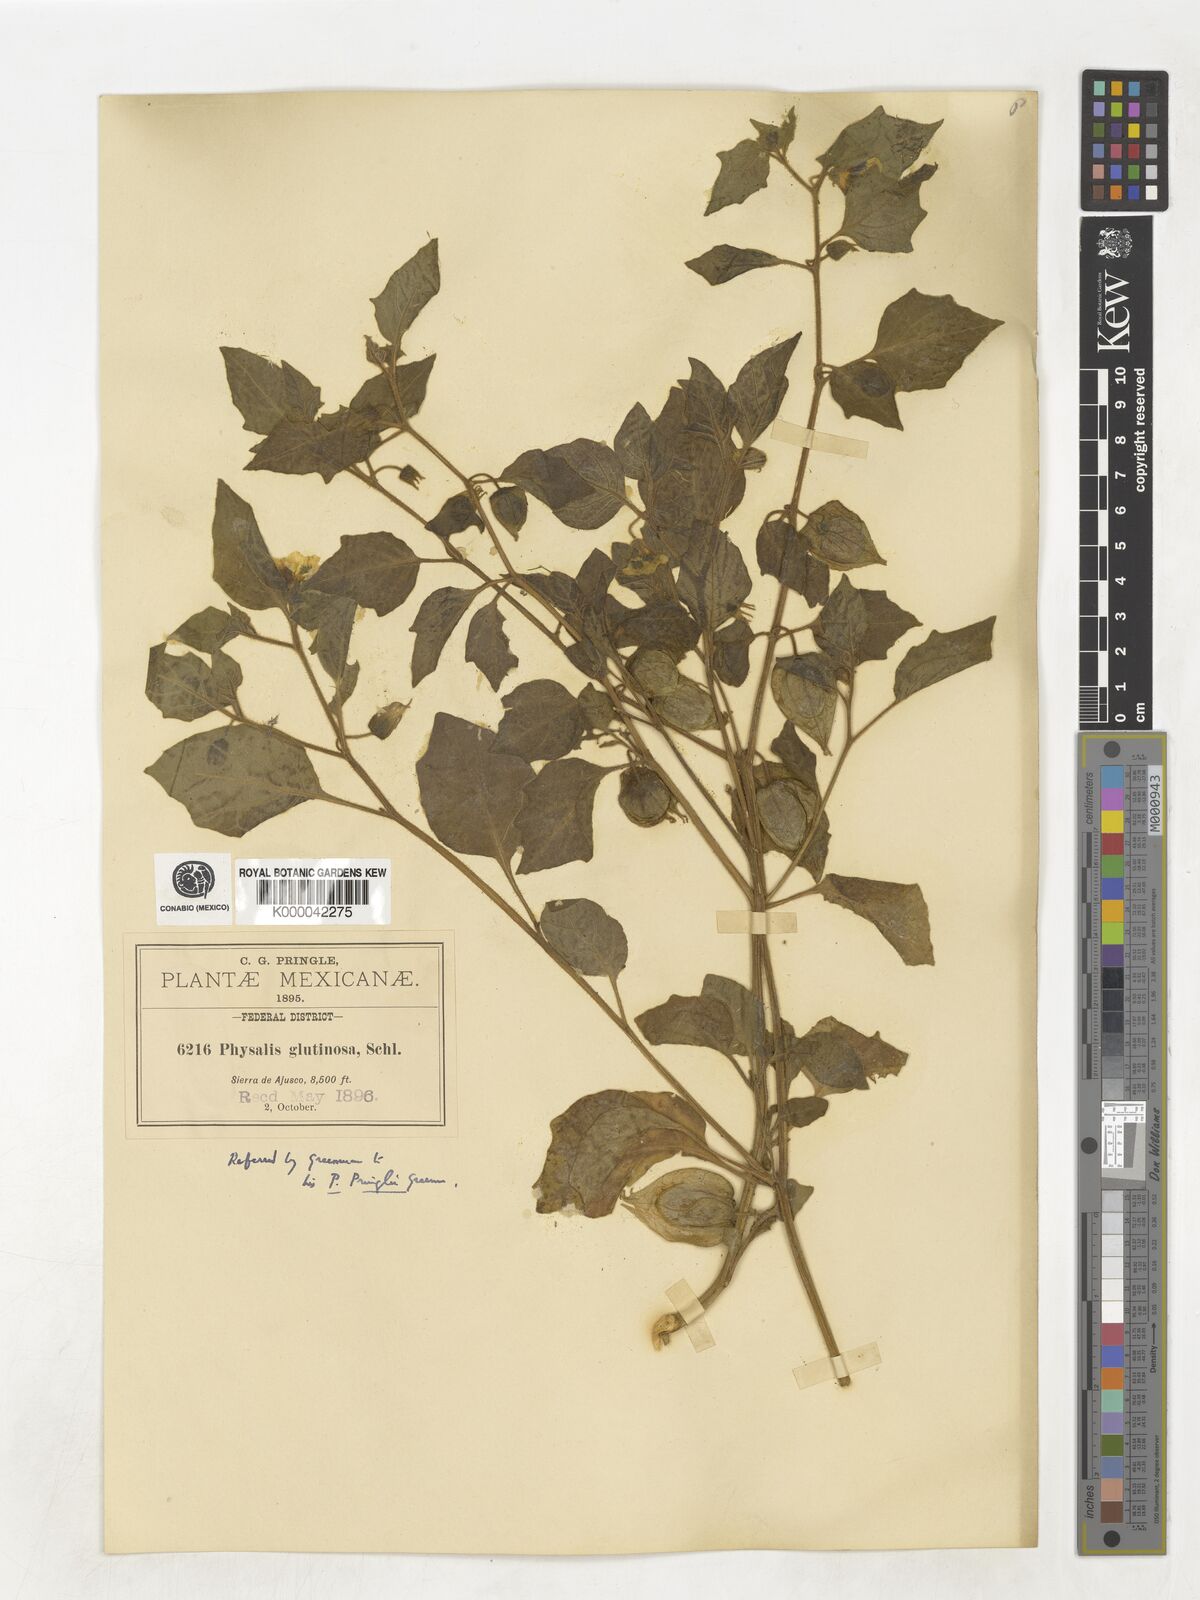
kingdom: Plantae
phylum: Tracheophyta
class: Magnoliopsida
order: Solanales
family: Solanaceae
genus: Physalis
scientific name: Physalis pringlei
